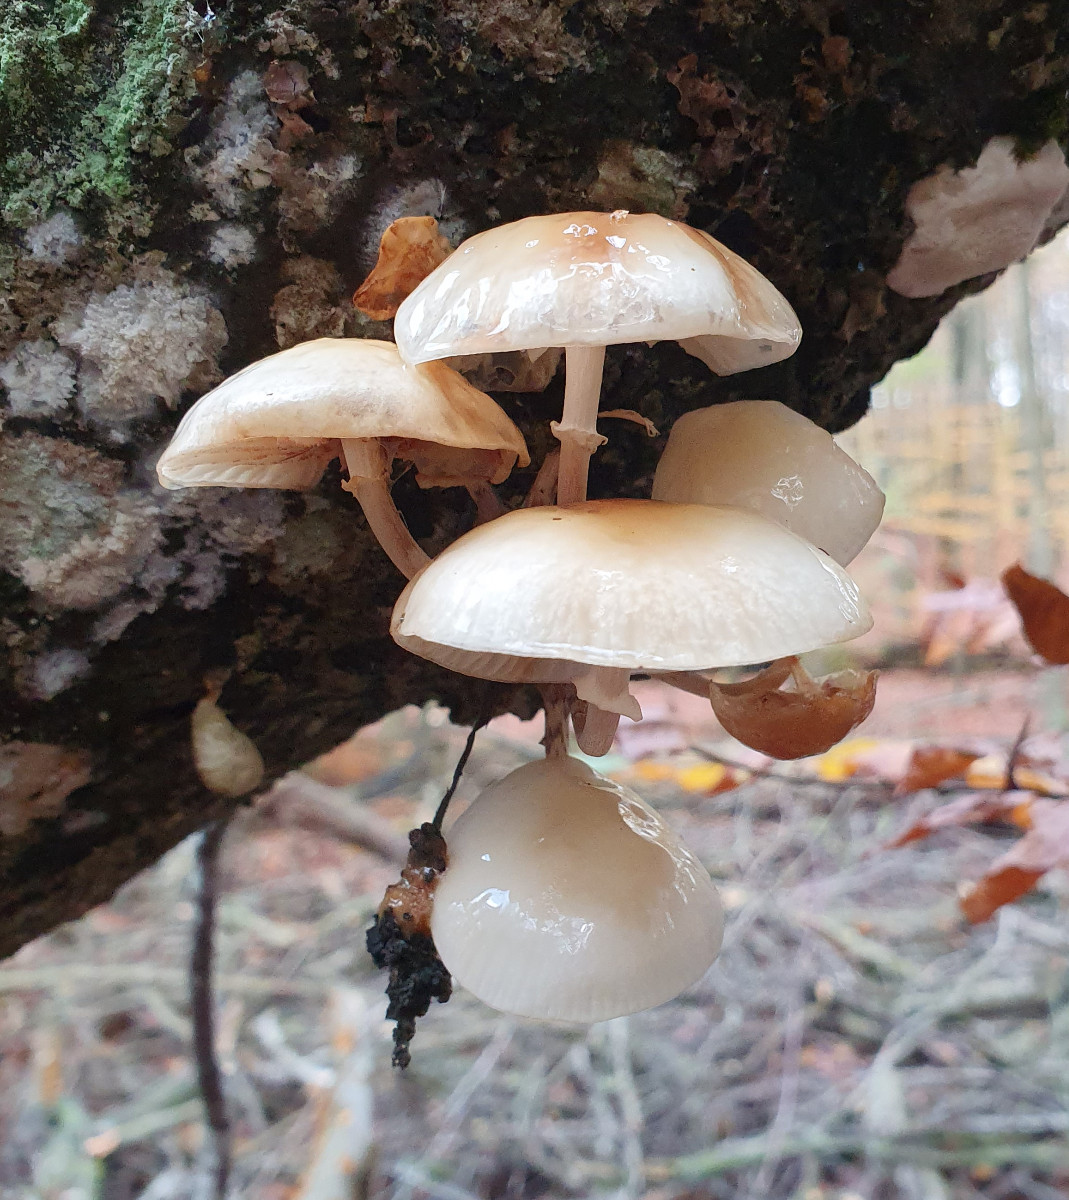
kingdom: Fungi
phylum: Basidiomycota
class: Agaricomycetes
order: Agaricales
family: Physalacriaceae
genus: Mucidula
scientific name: Mucidula mucida
